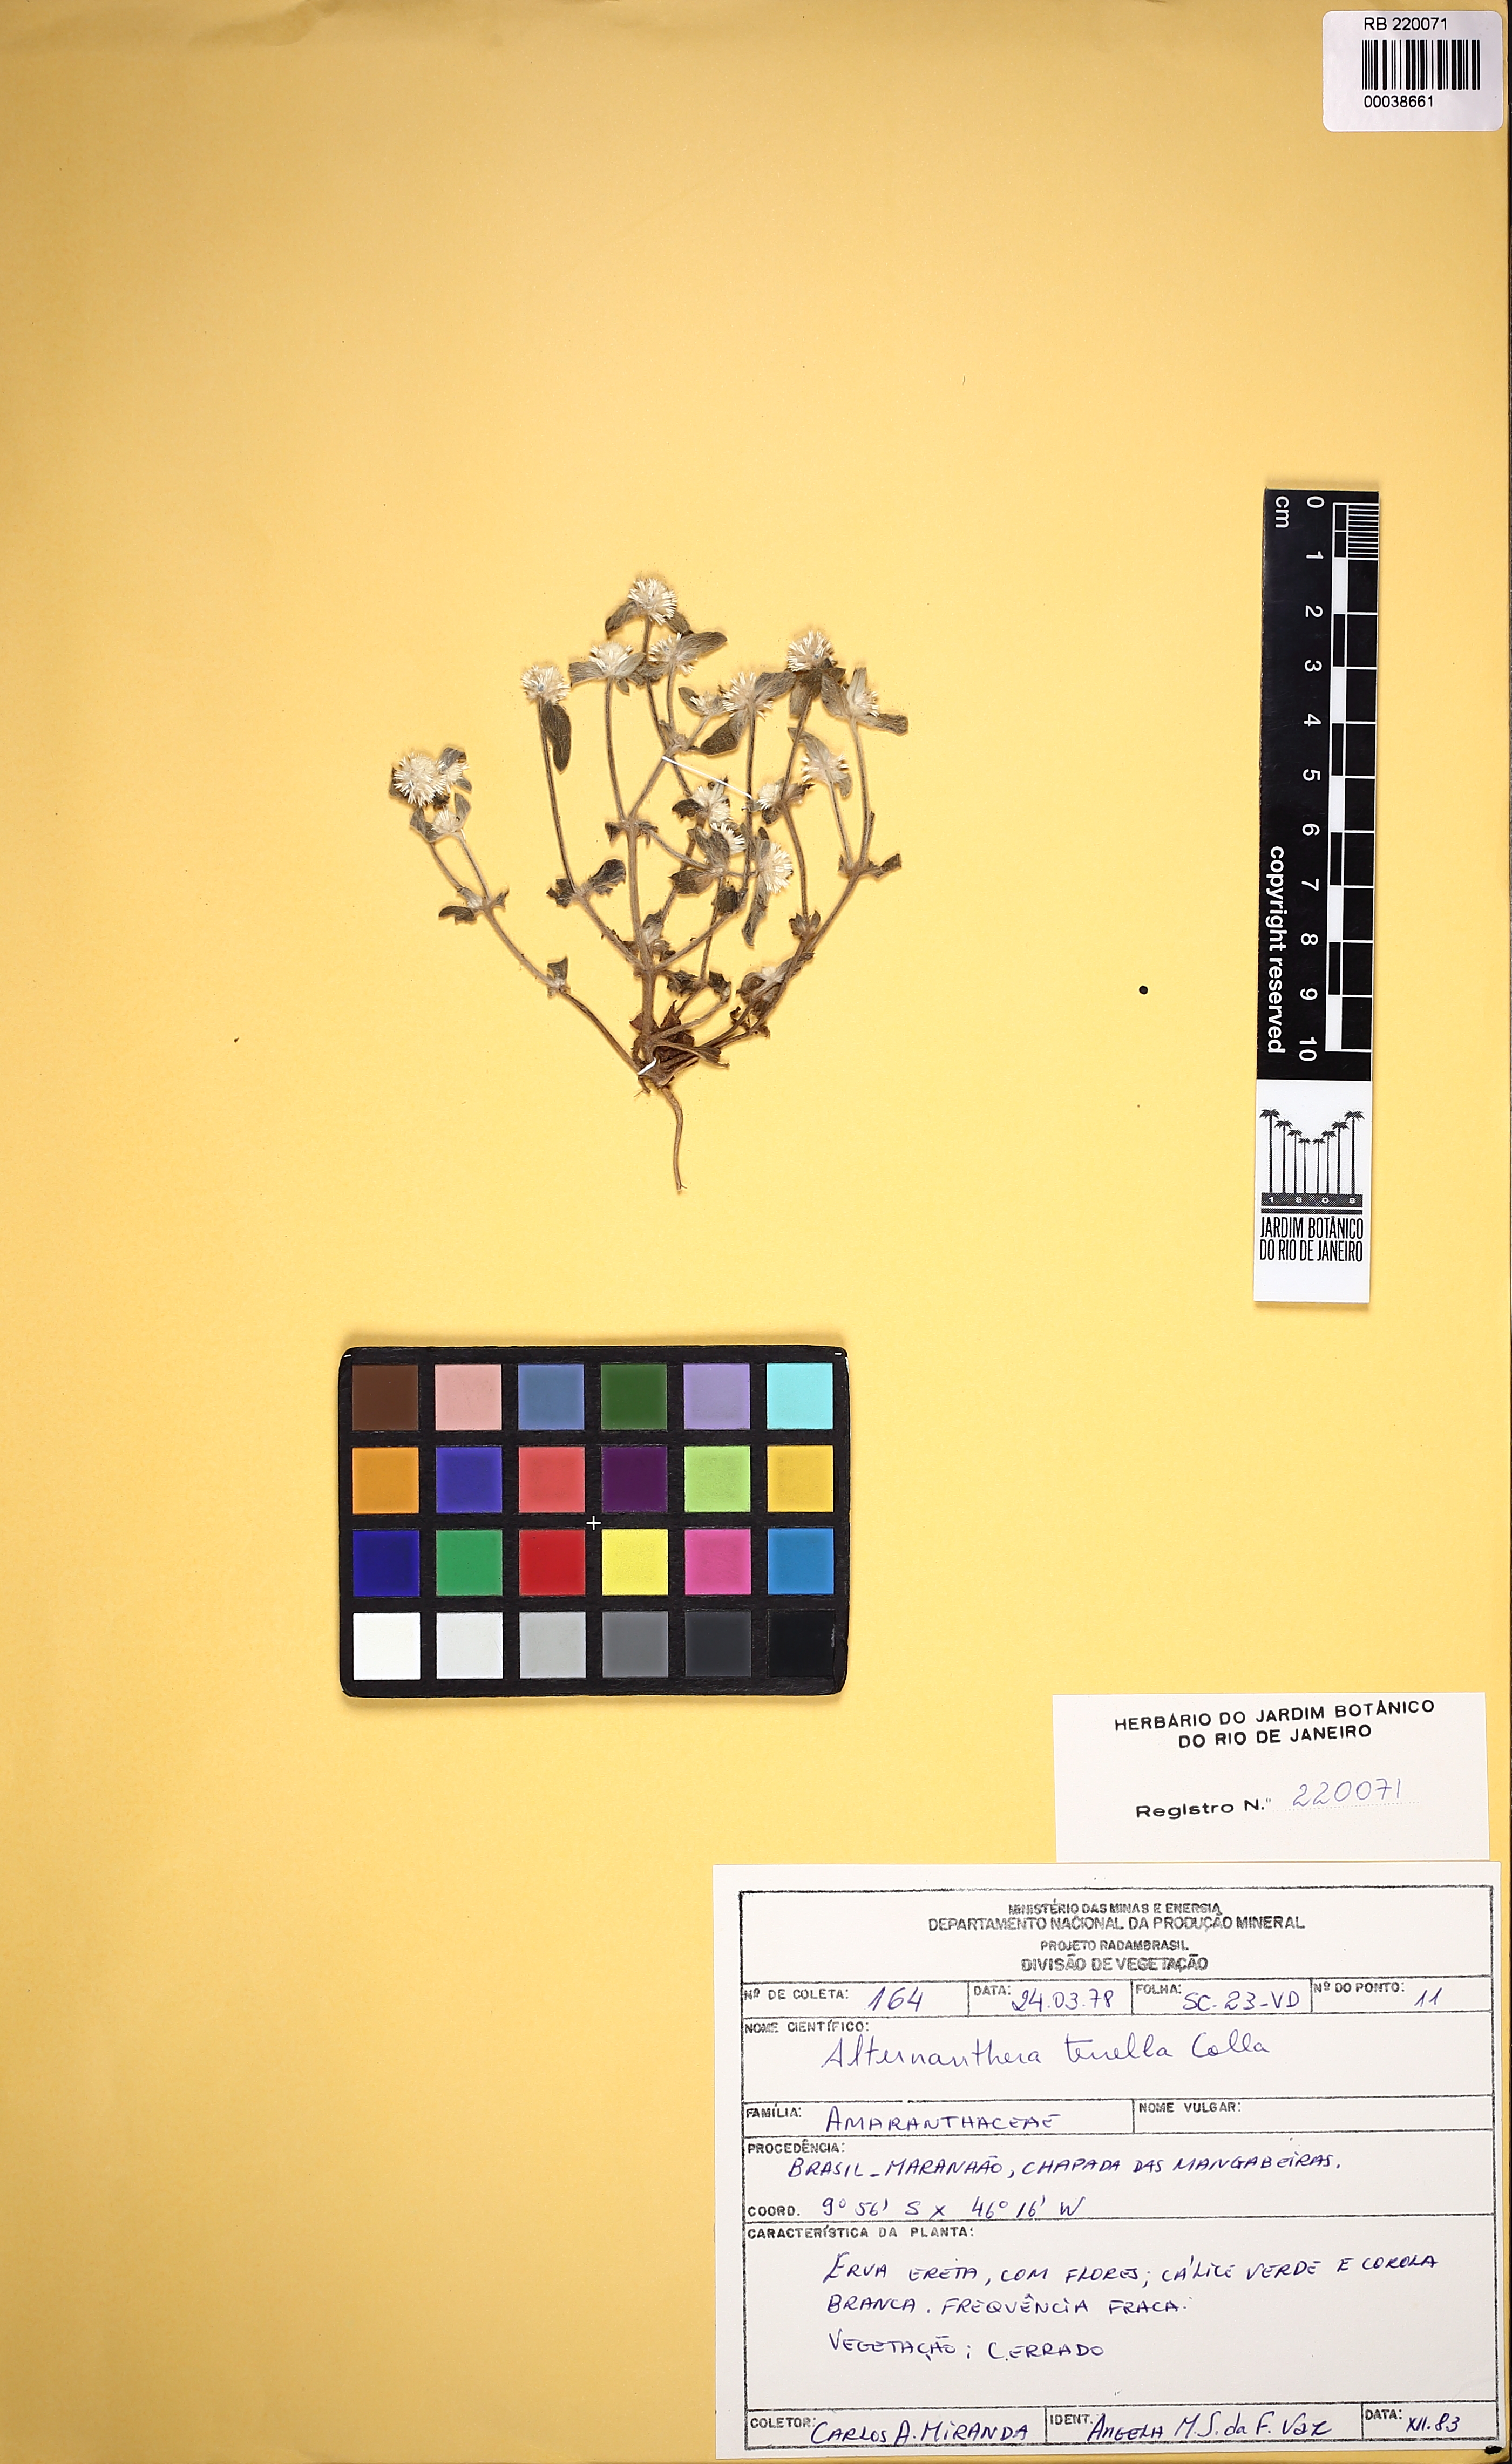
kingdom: Plantae
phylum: Tracheophyta
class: Magnoliopsida
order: Caryophyllales
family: Amaranthaceae
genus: Alternanthera
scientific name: Alternanthera martii
